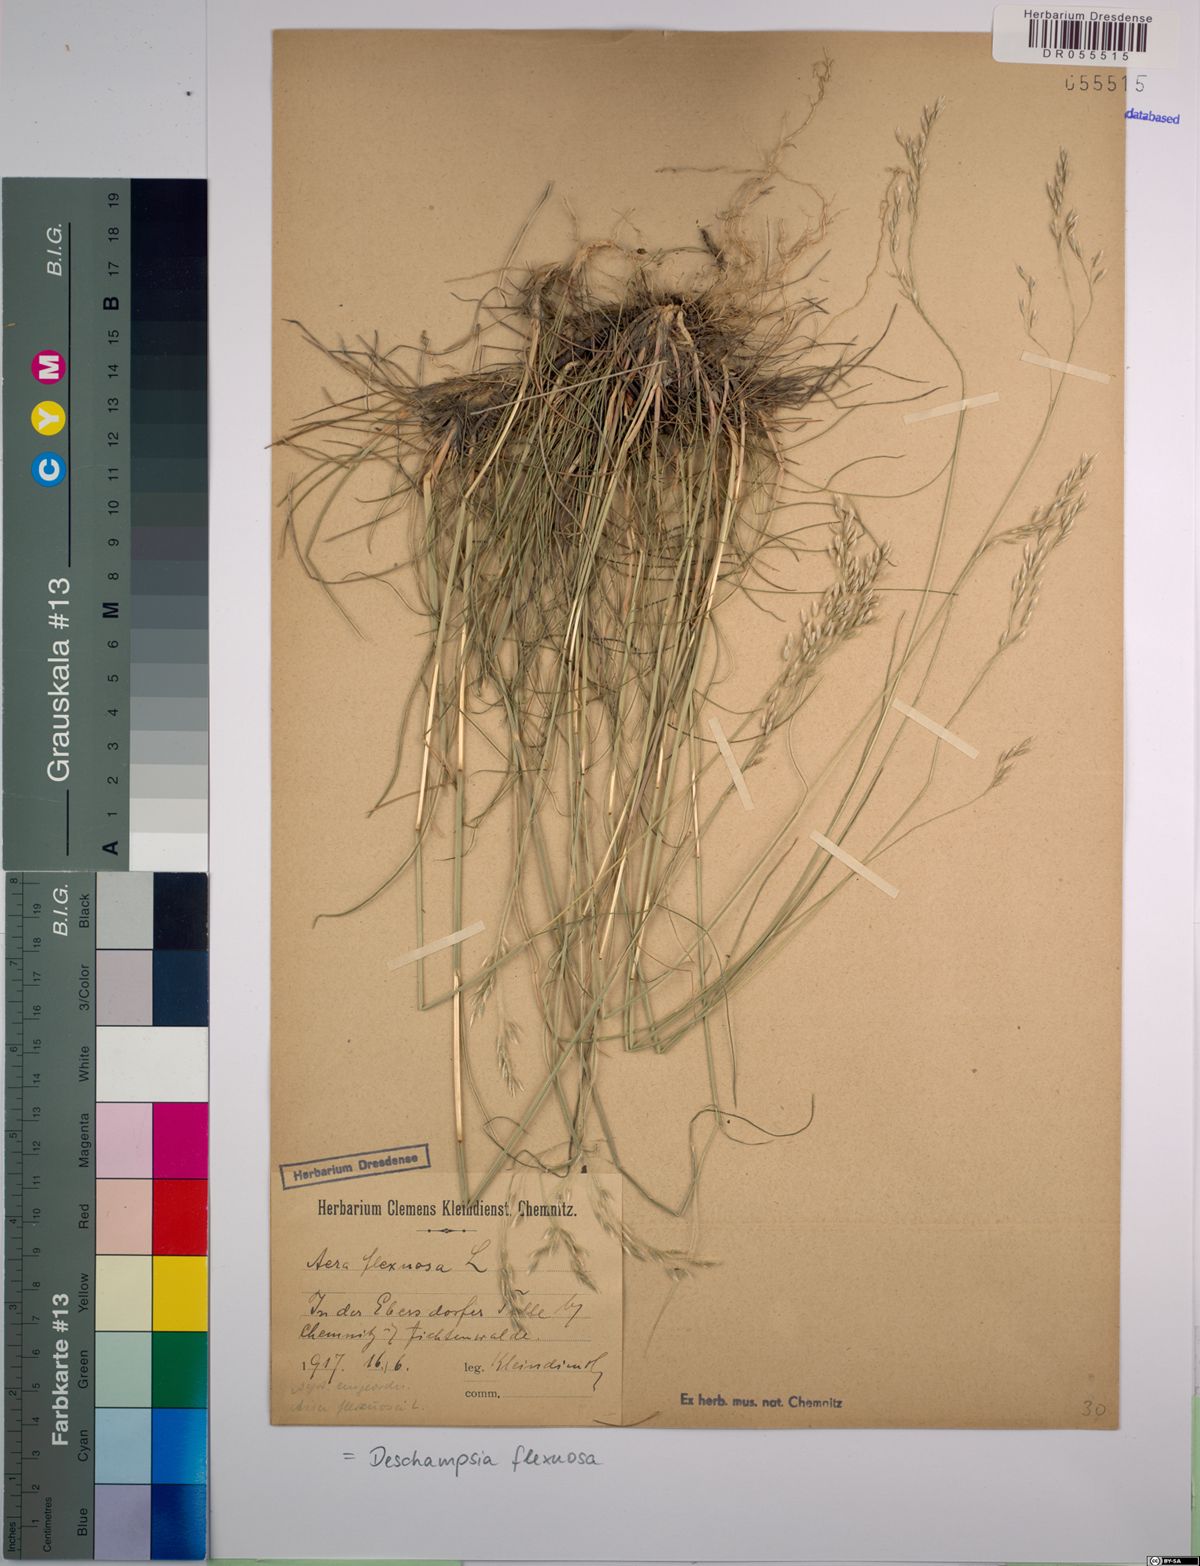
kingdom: Plantae
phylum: Tracheophyta
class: Liliopsida
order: Poales
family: Poaceae
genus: Avenella
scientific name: Avenella flexuosa
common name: Wavy hairgrass
